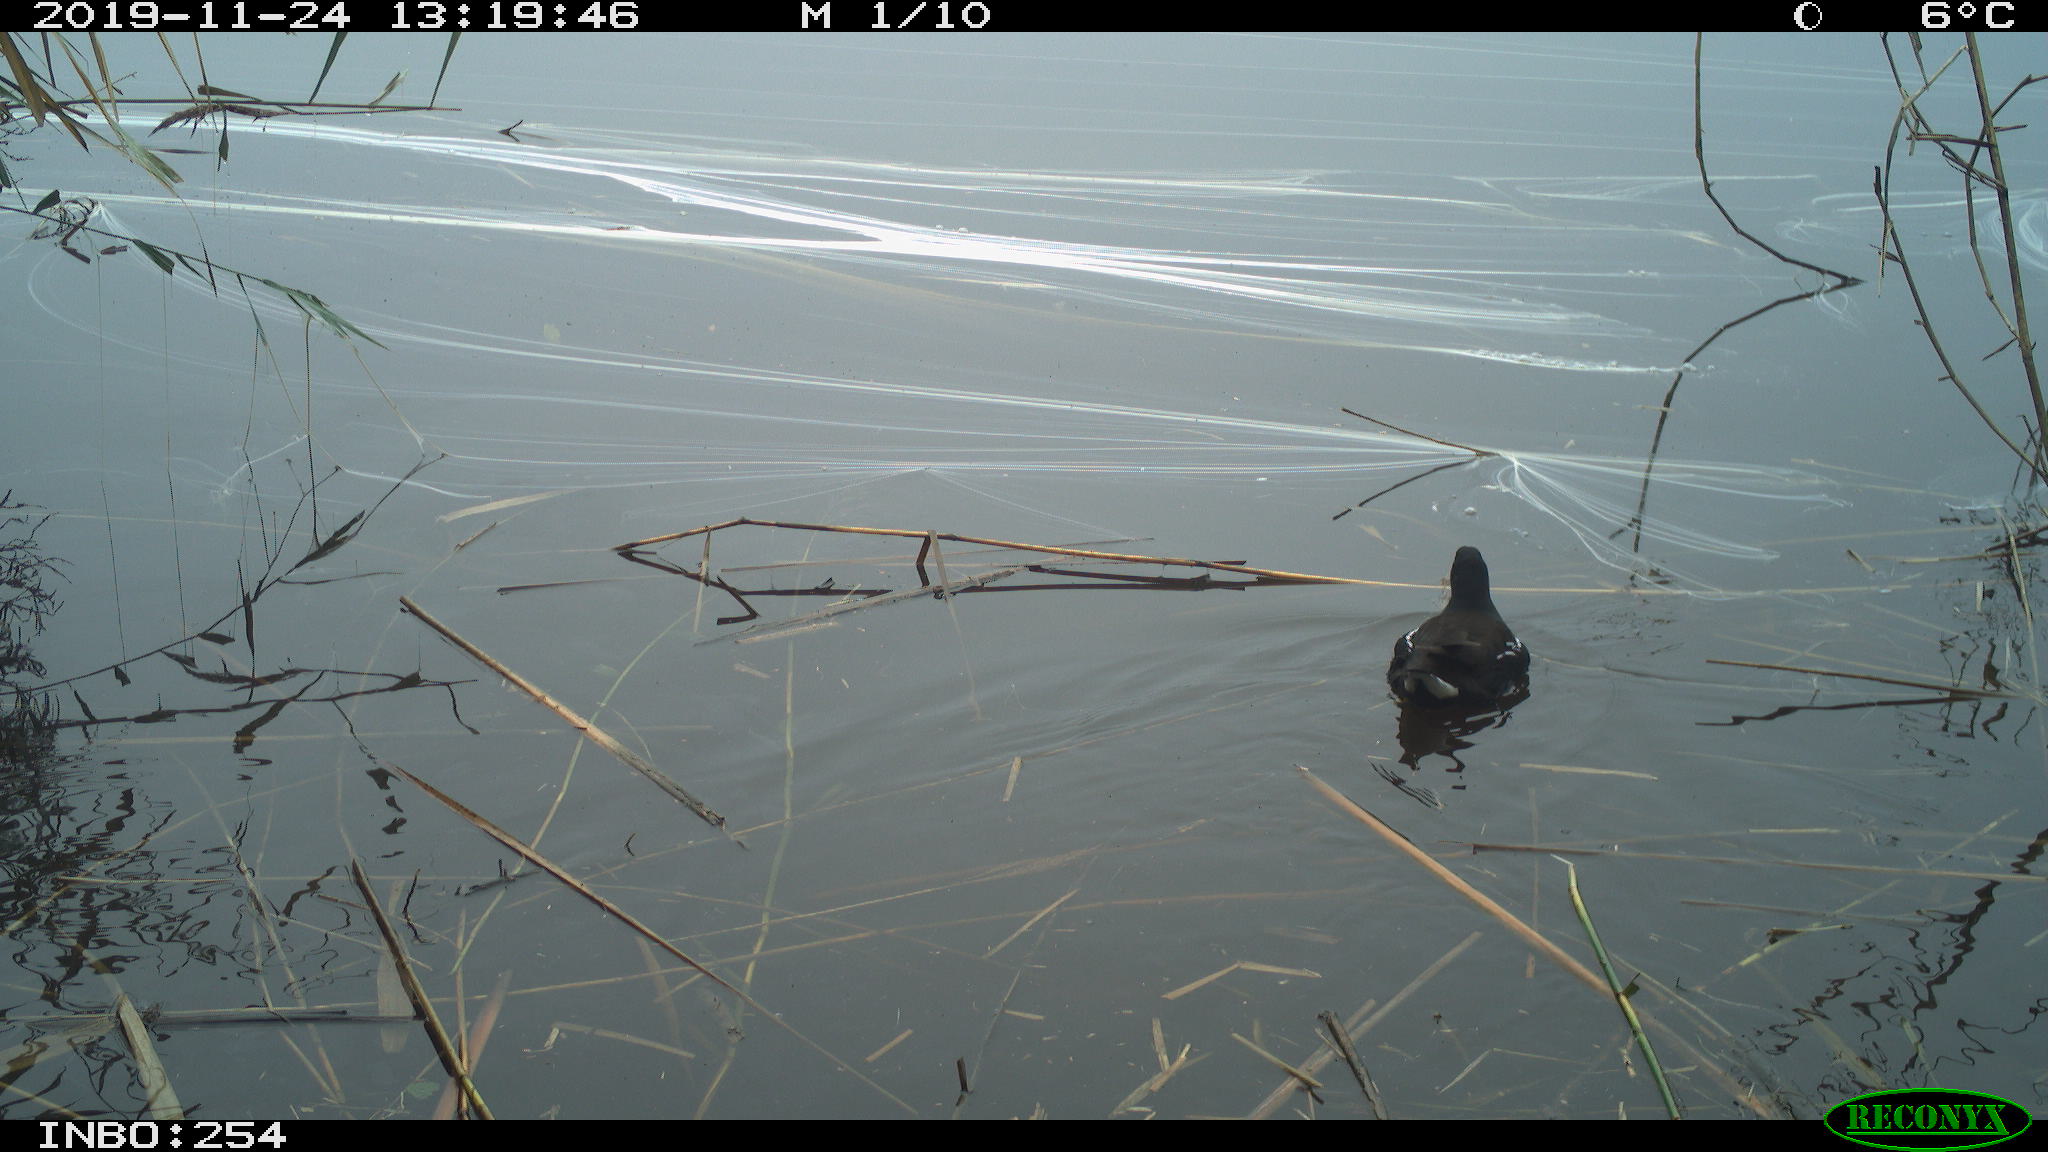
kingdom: Animalia
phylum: Chordata
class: Aves
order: Gruiformes
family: Rallidae
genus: Gallinula
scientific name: Gallinula chloropus
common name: Common moorhen
